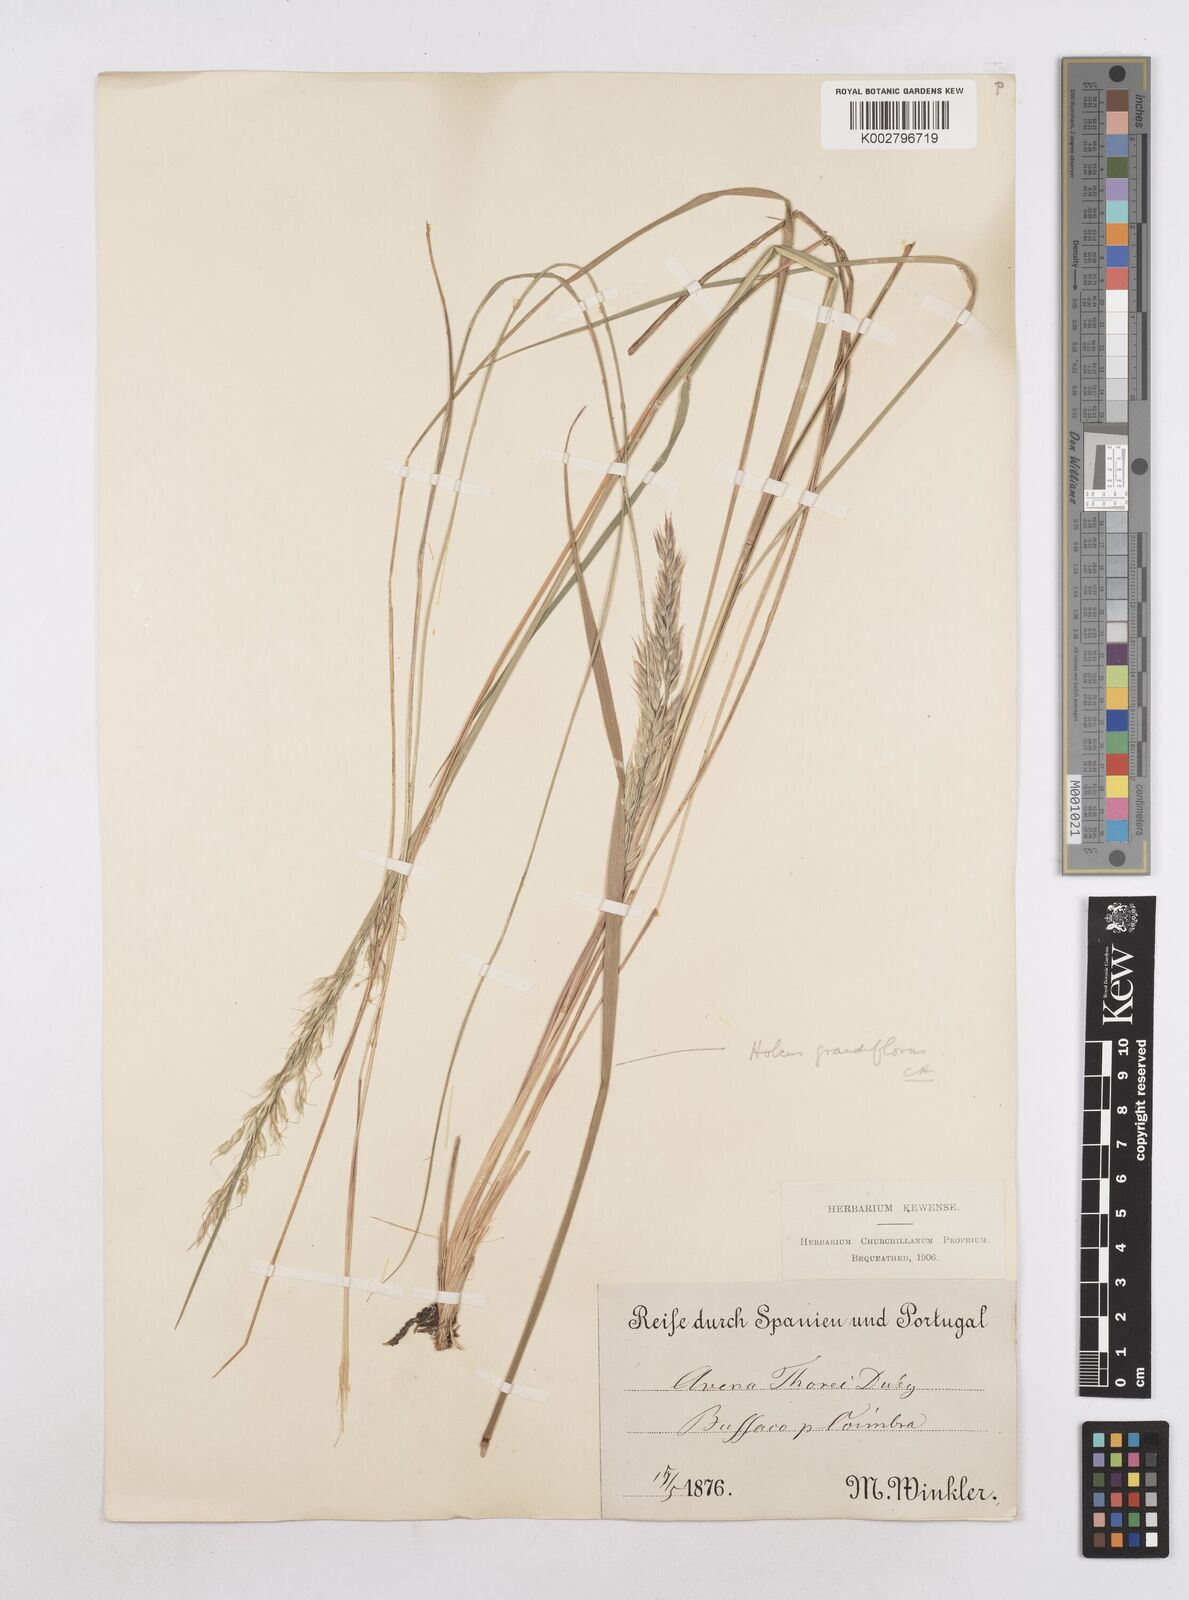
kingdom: Plantae
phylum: Tracheophyta
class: Liliopsida
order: Poales
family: Poaceae
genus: Arrhenatherum
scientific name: Arrhenatherum longifolium
